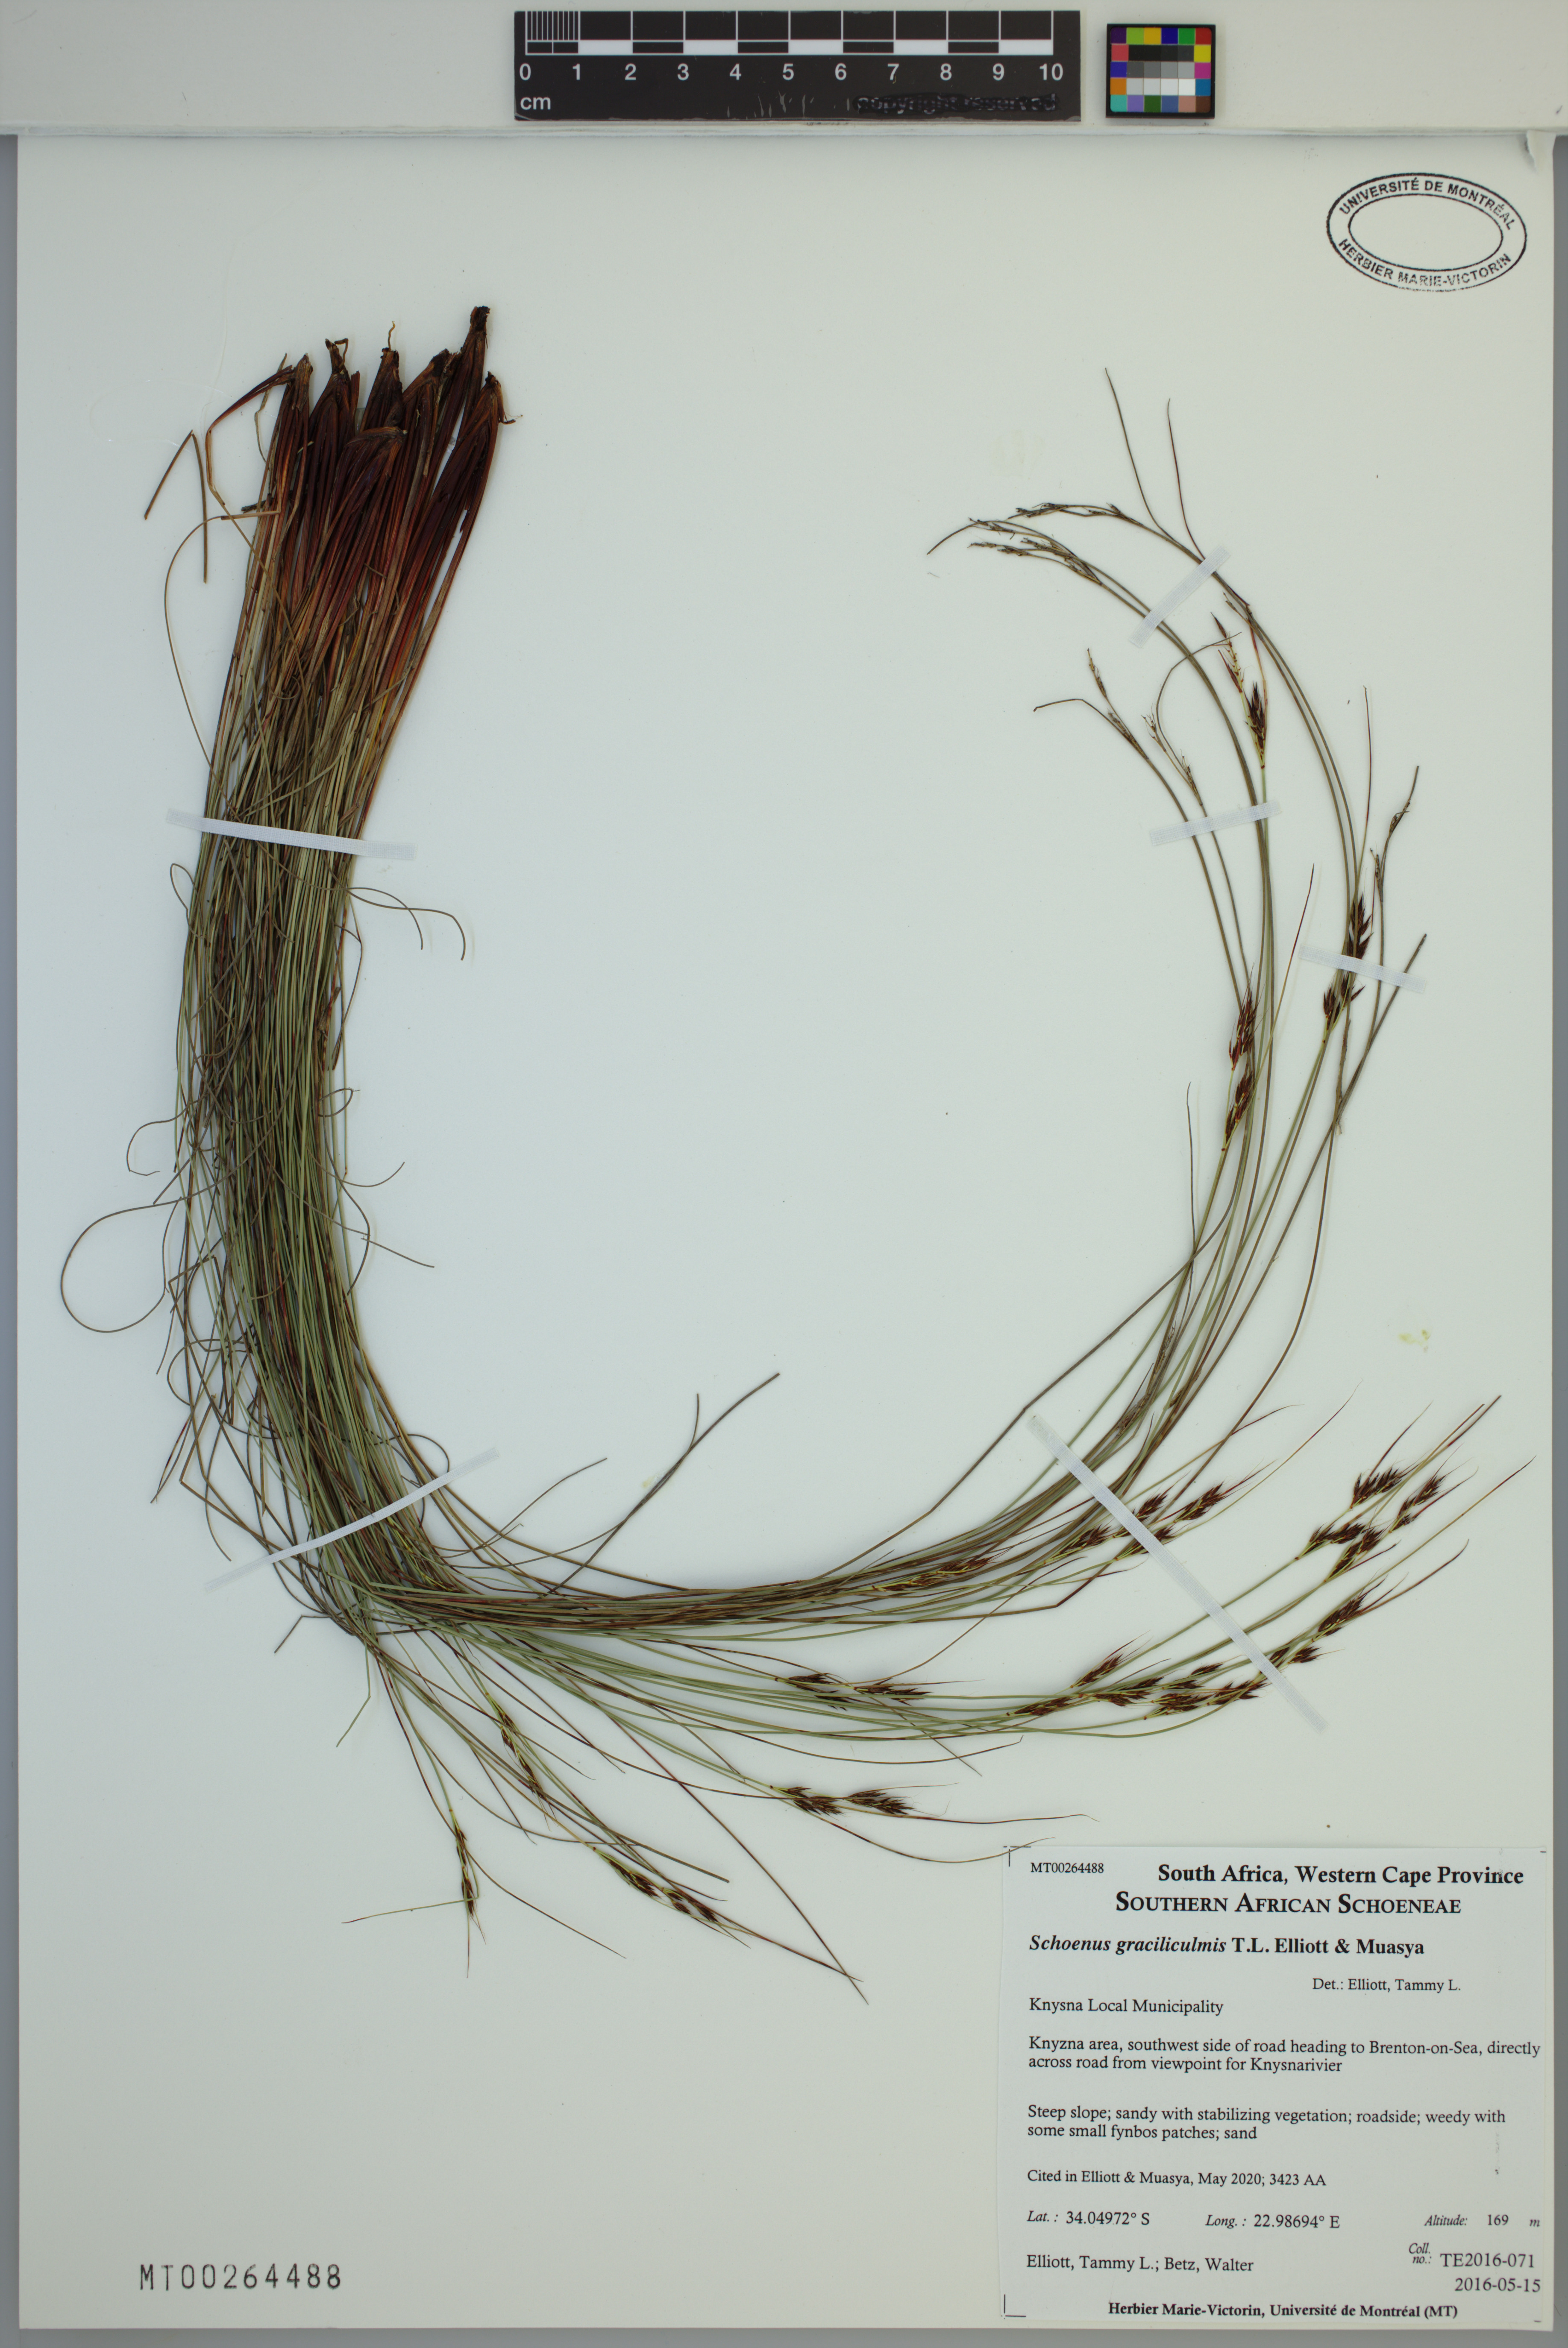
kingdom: Plantae
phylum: Tracheophyta
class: Liliopsida
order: Poales
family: Cyperaceae
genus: Schoenus
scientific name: Schoenus graciliculmis
